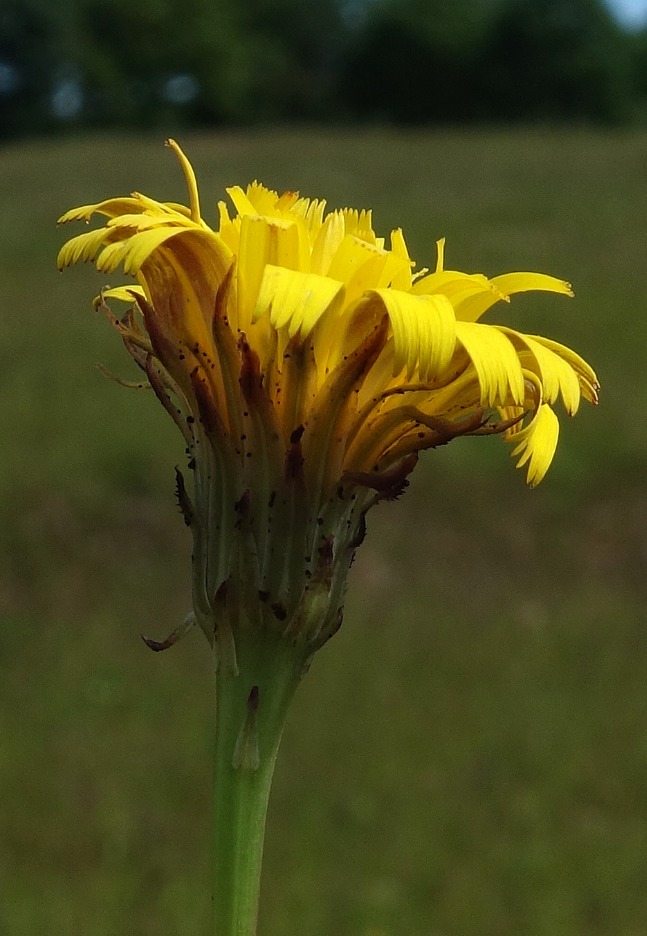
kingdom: Plantae
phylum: Tracheophyta
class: Magnoliopsida
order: Asterales
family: Asteraceae
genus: Hypochaeris
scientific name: Hypochaeris radicata
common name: Almindelig kongepen
